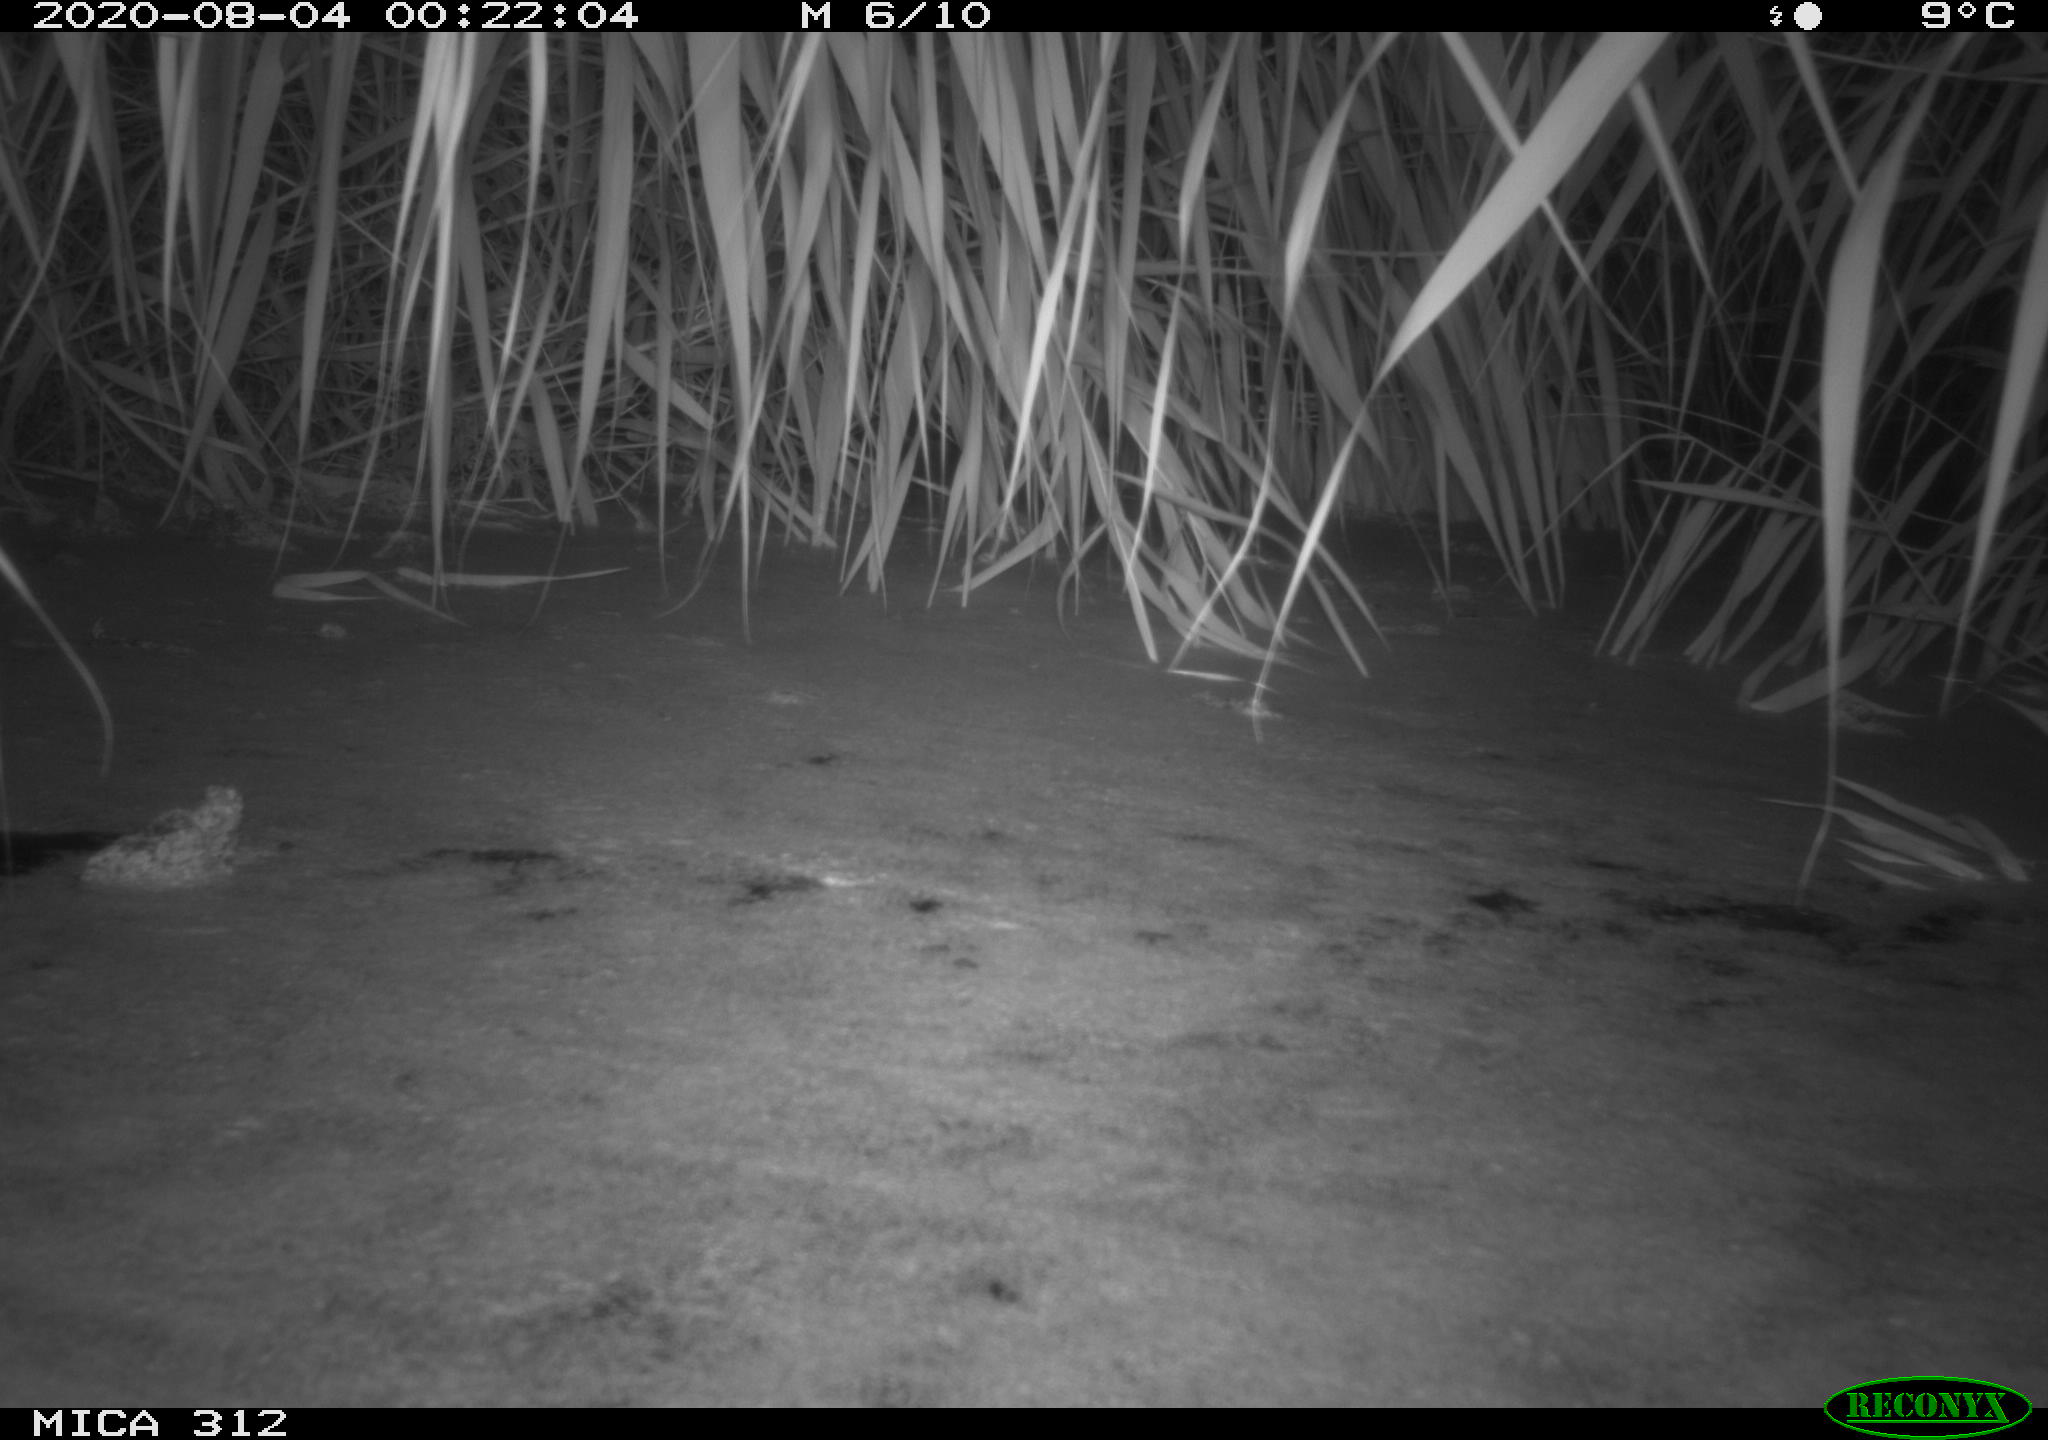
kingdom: Animalia
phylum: Chordata
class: Mammalia
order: Rodentia
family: Muridae
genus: Rattus
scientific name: Rattus norvegicus
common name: Brown rat
